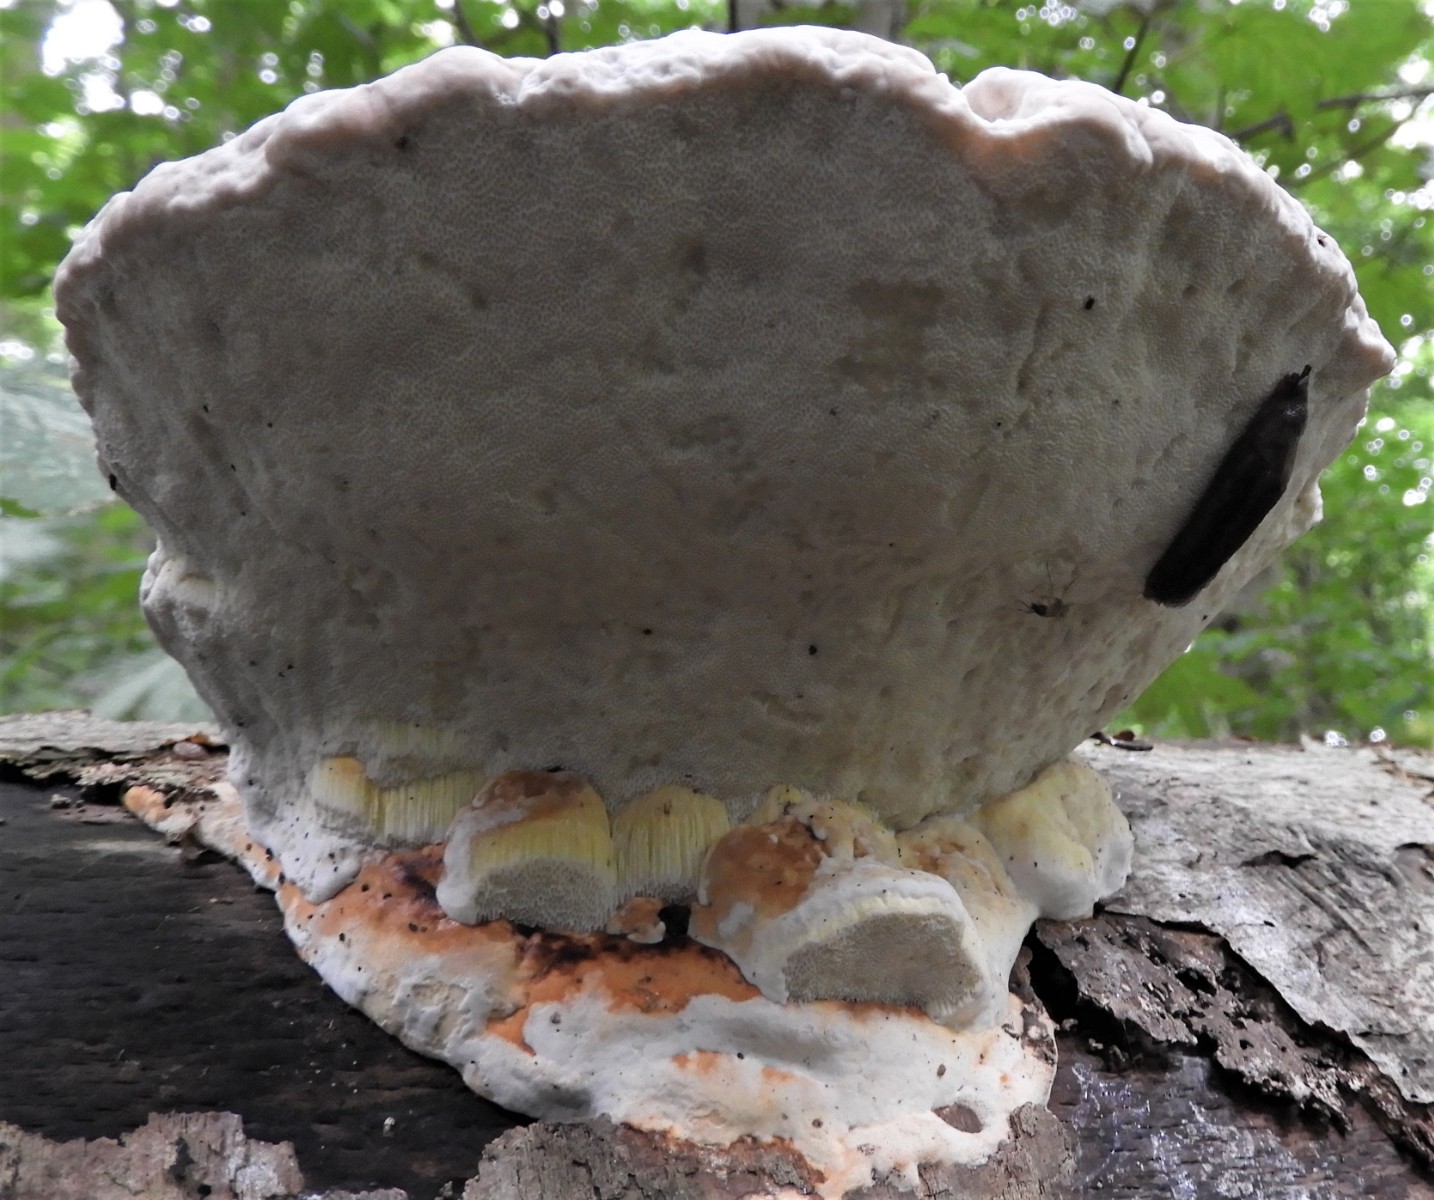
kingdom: Fungi
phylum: Basidiomycota
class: Agaricomycetes
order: Polyporales
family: Fomitopsidaceae
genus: Fomitopsis
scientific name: Fomitopsis pinicola
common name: randbæltet hovporesvamp
